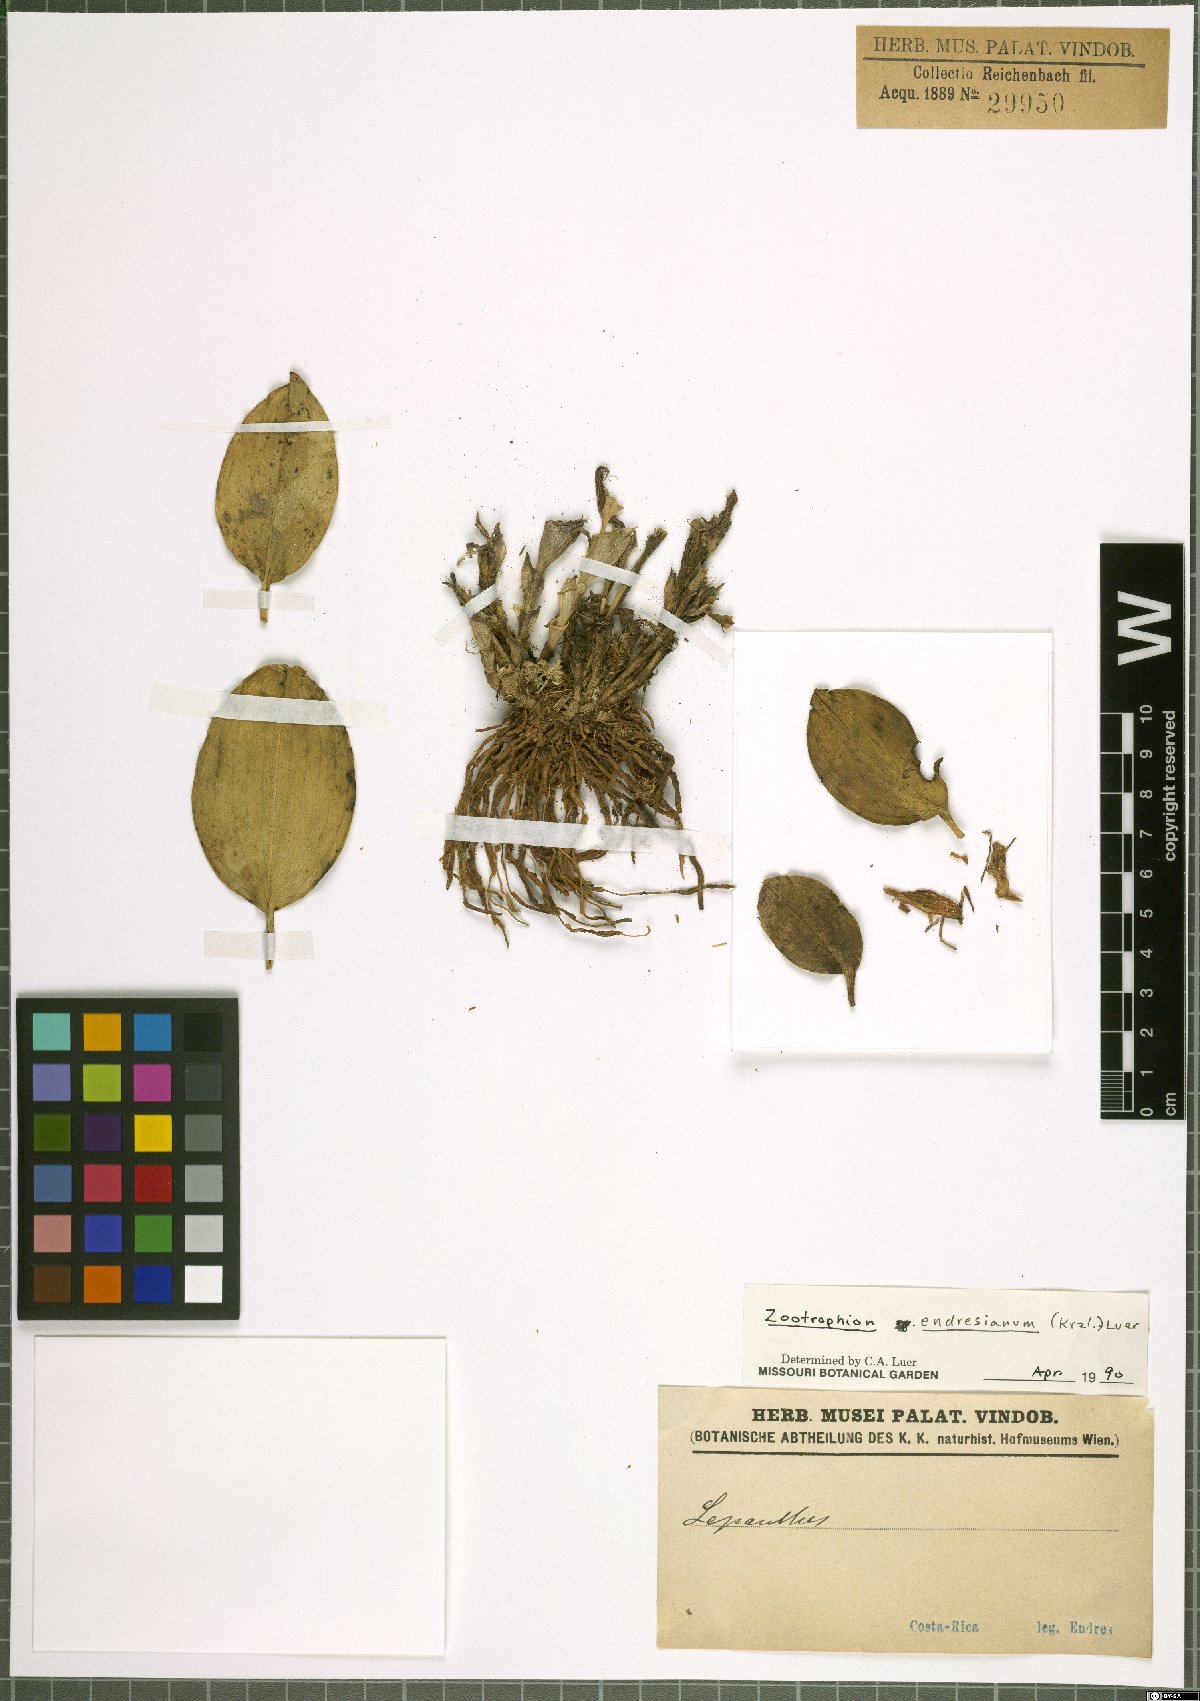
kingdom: Plantae
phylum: Tracheophyta
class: Liliopsida
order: Asparagales
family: Orchidaceae
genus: Zootrophion
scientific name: Zootrophion endresianum
